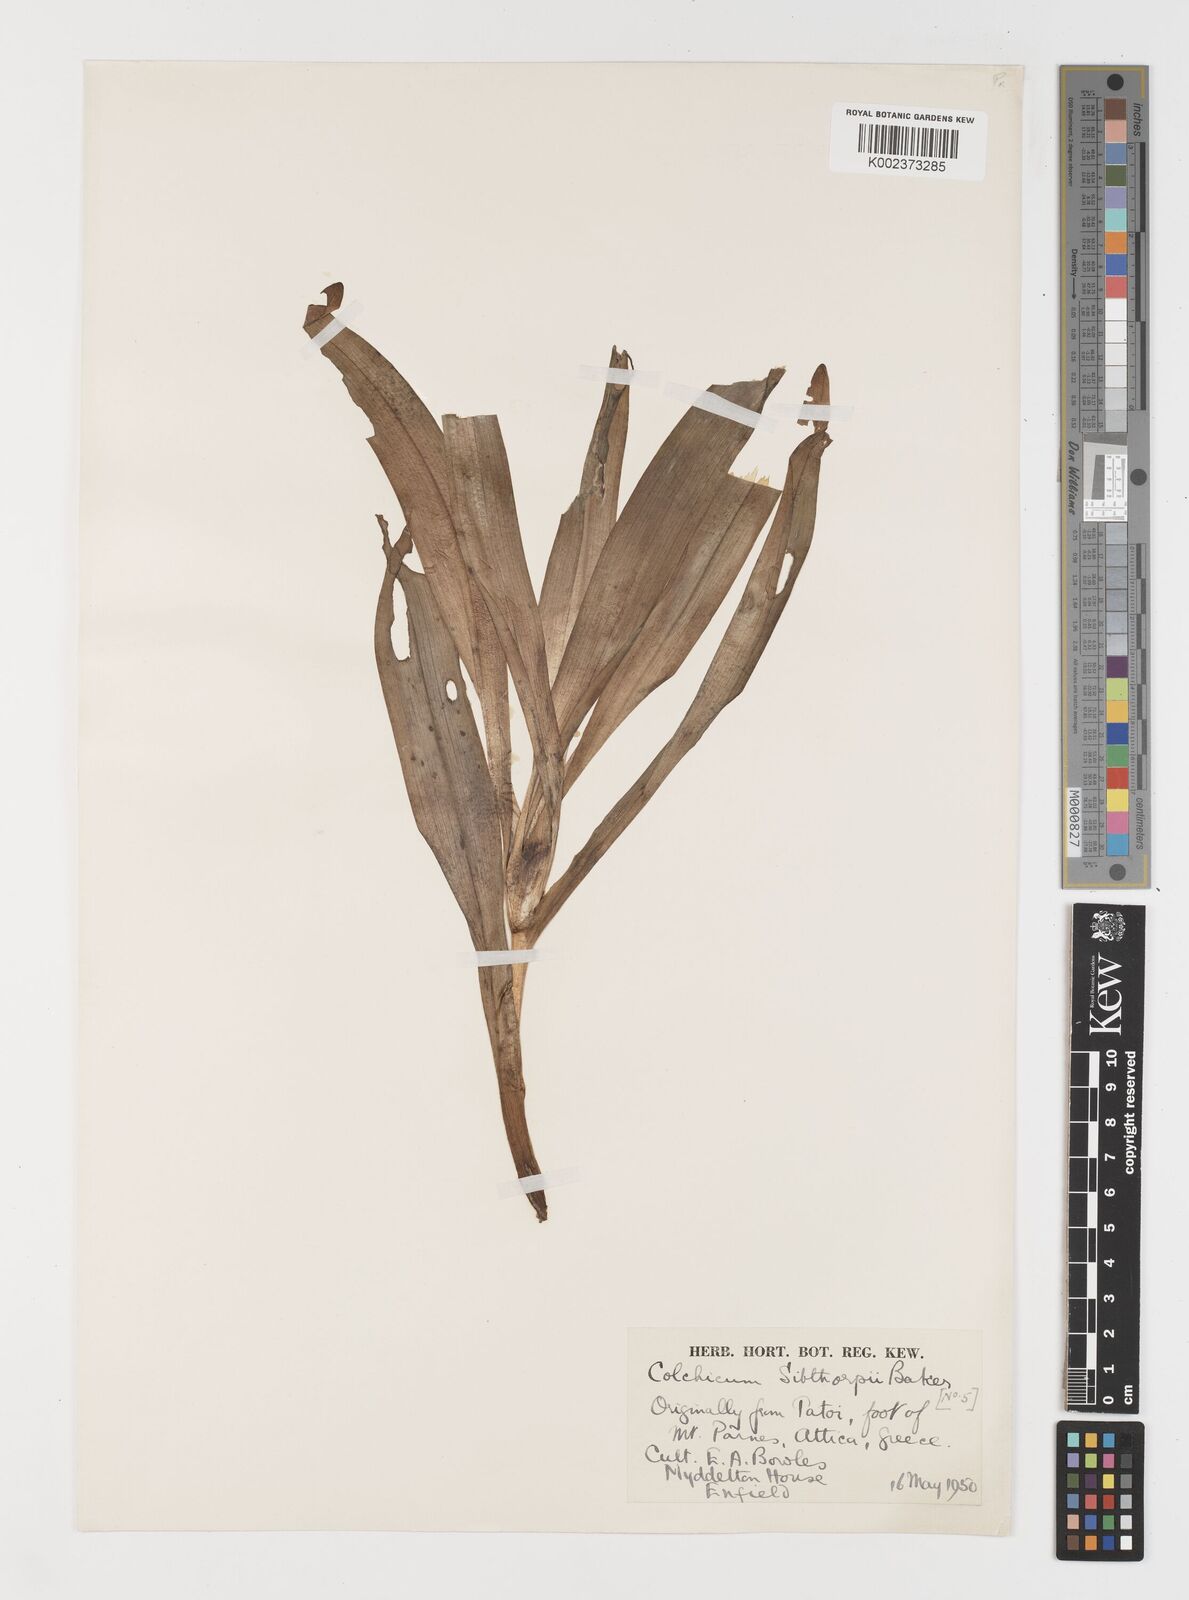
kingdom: Plantae
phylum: Tracheophyta
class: Liliopsida
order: Liliales
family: Colchicaceae
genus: Colchicum
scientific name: Colchicum bivonae
